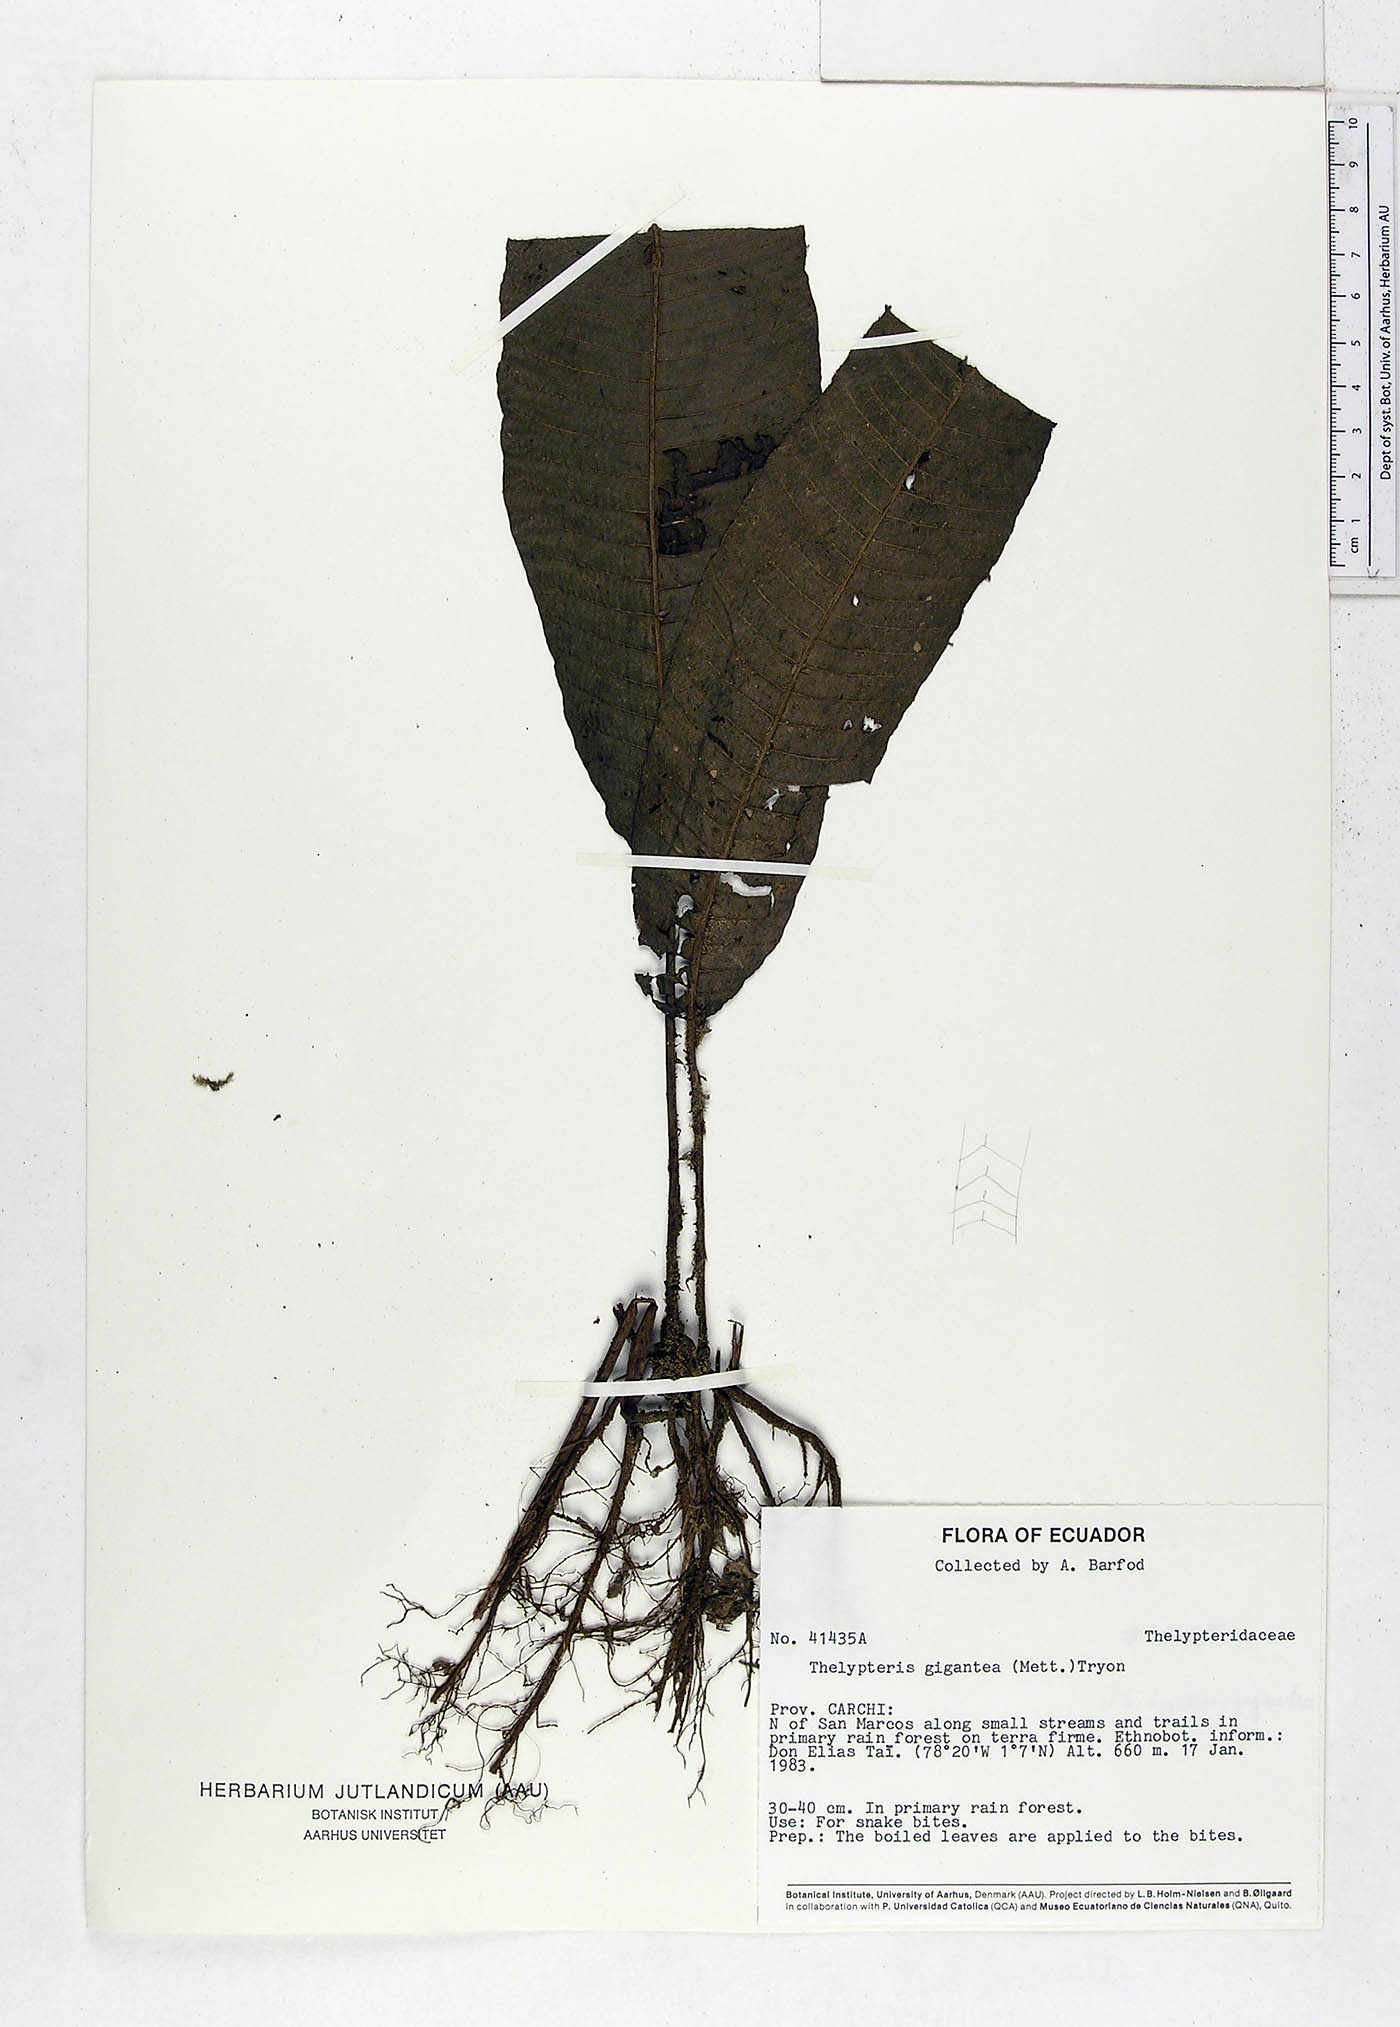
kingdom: Plantae
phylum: Tracheophyta
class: Polypodiopsida
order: Polypodiales
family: Thelypteridaceae
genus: Meniscium
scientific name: Meniscium giganteum
